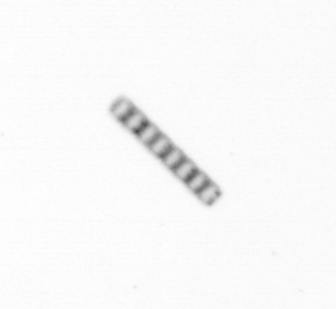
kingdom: Chromista
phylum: Ochrophyta
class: Bacillariophyceae
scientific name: Bacillariophyceae
